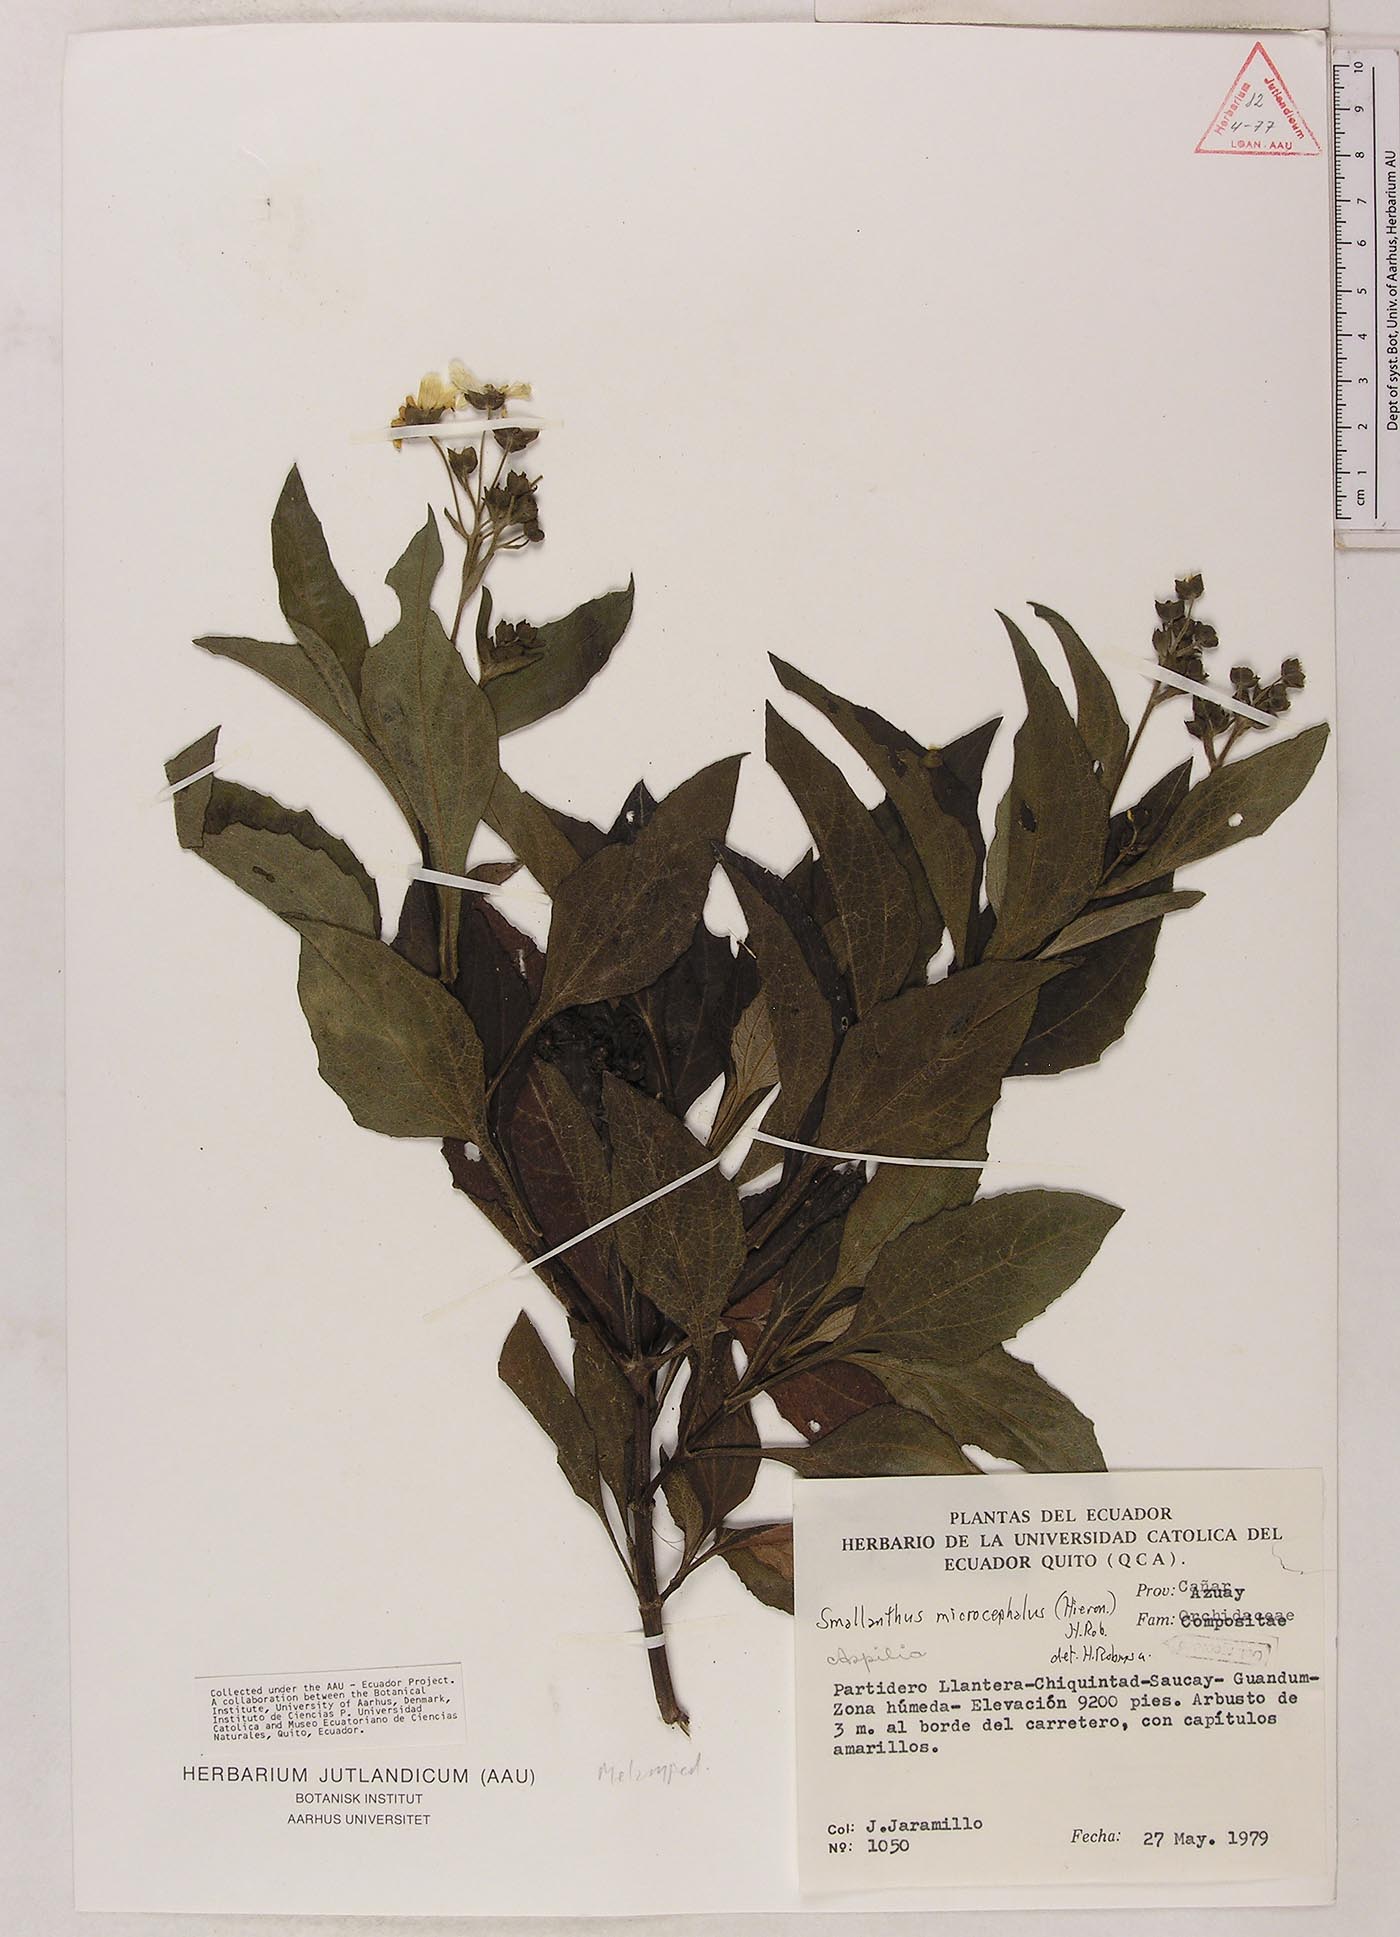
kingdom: Plantae
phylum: Tracheophyta
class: Magnoliopsida
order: Asterales
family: Asteraceae
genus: Smallanthus
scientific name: Smallanthus microcephalus
